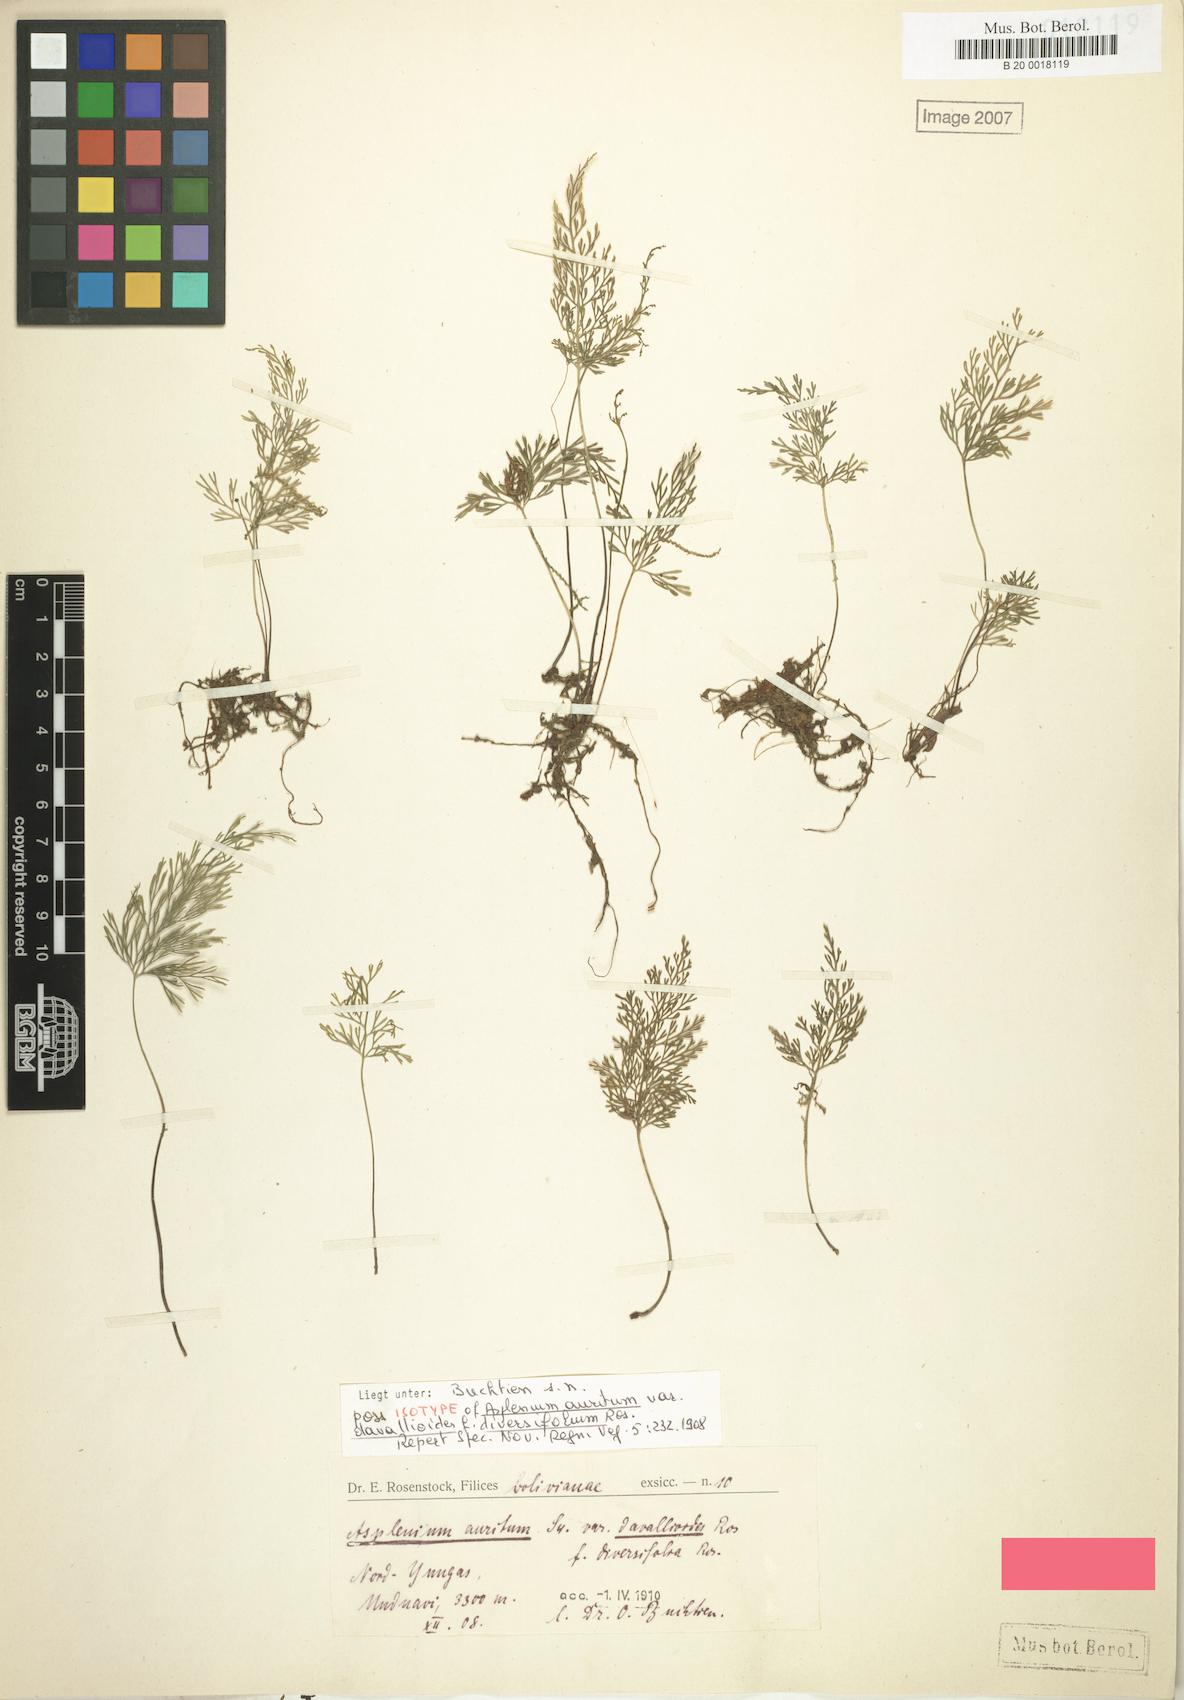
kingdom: Plantae
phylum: Tracheophyta
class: Polypodiopsida
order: Polypodiales
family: Aspleniaceae
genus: Asplenium
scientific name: Asplenium fragrans
